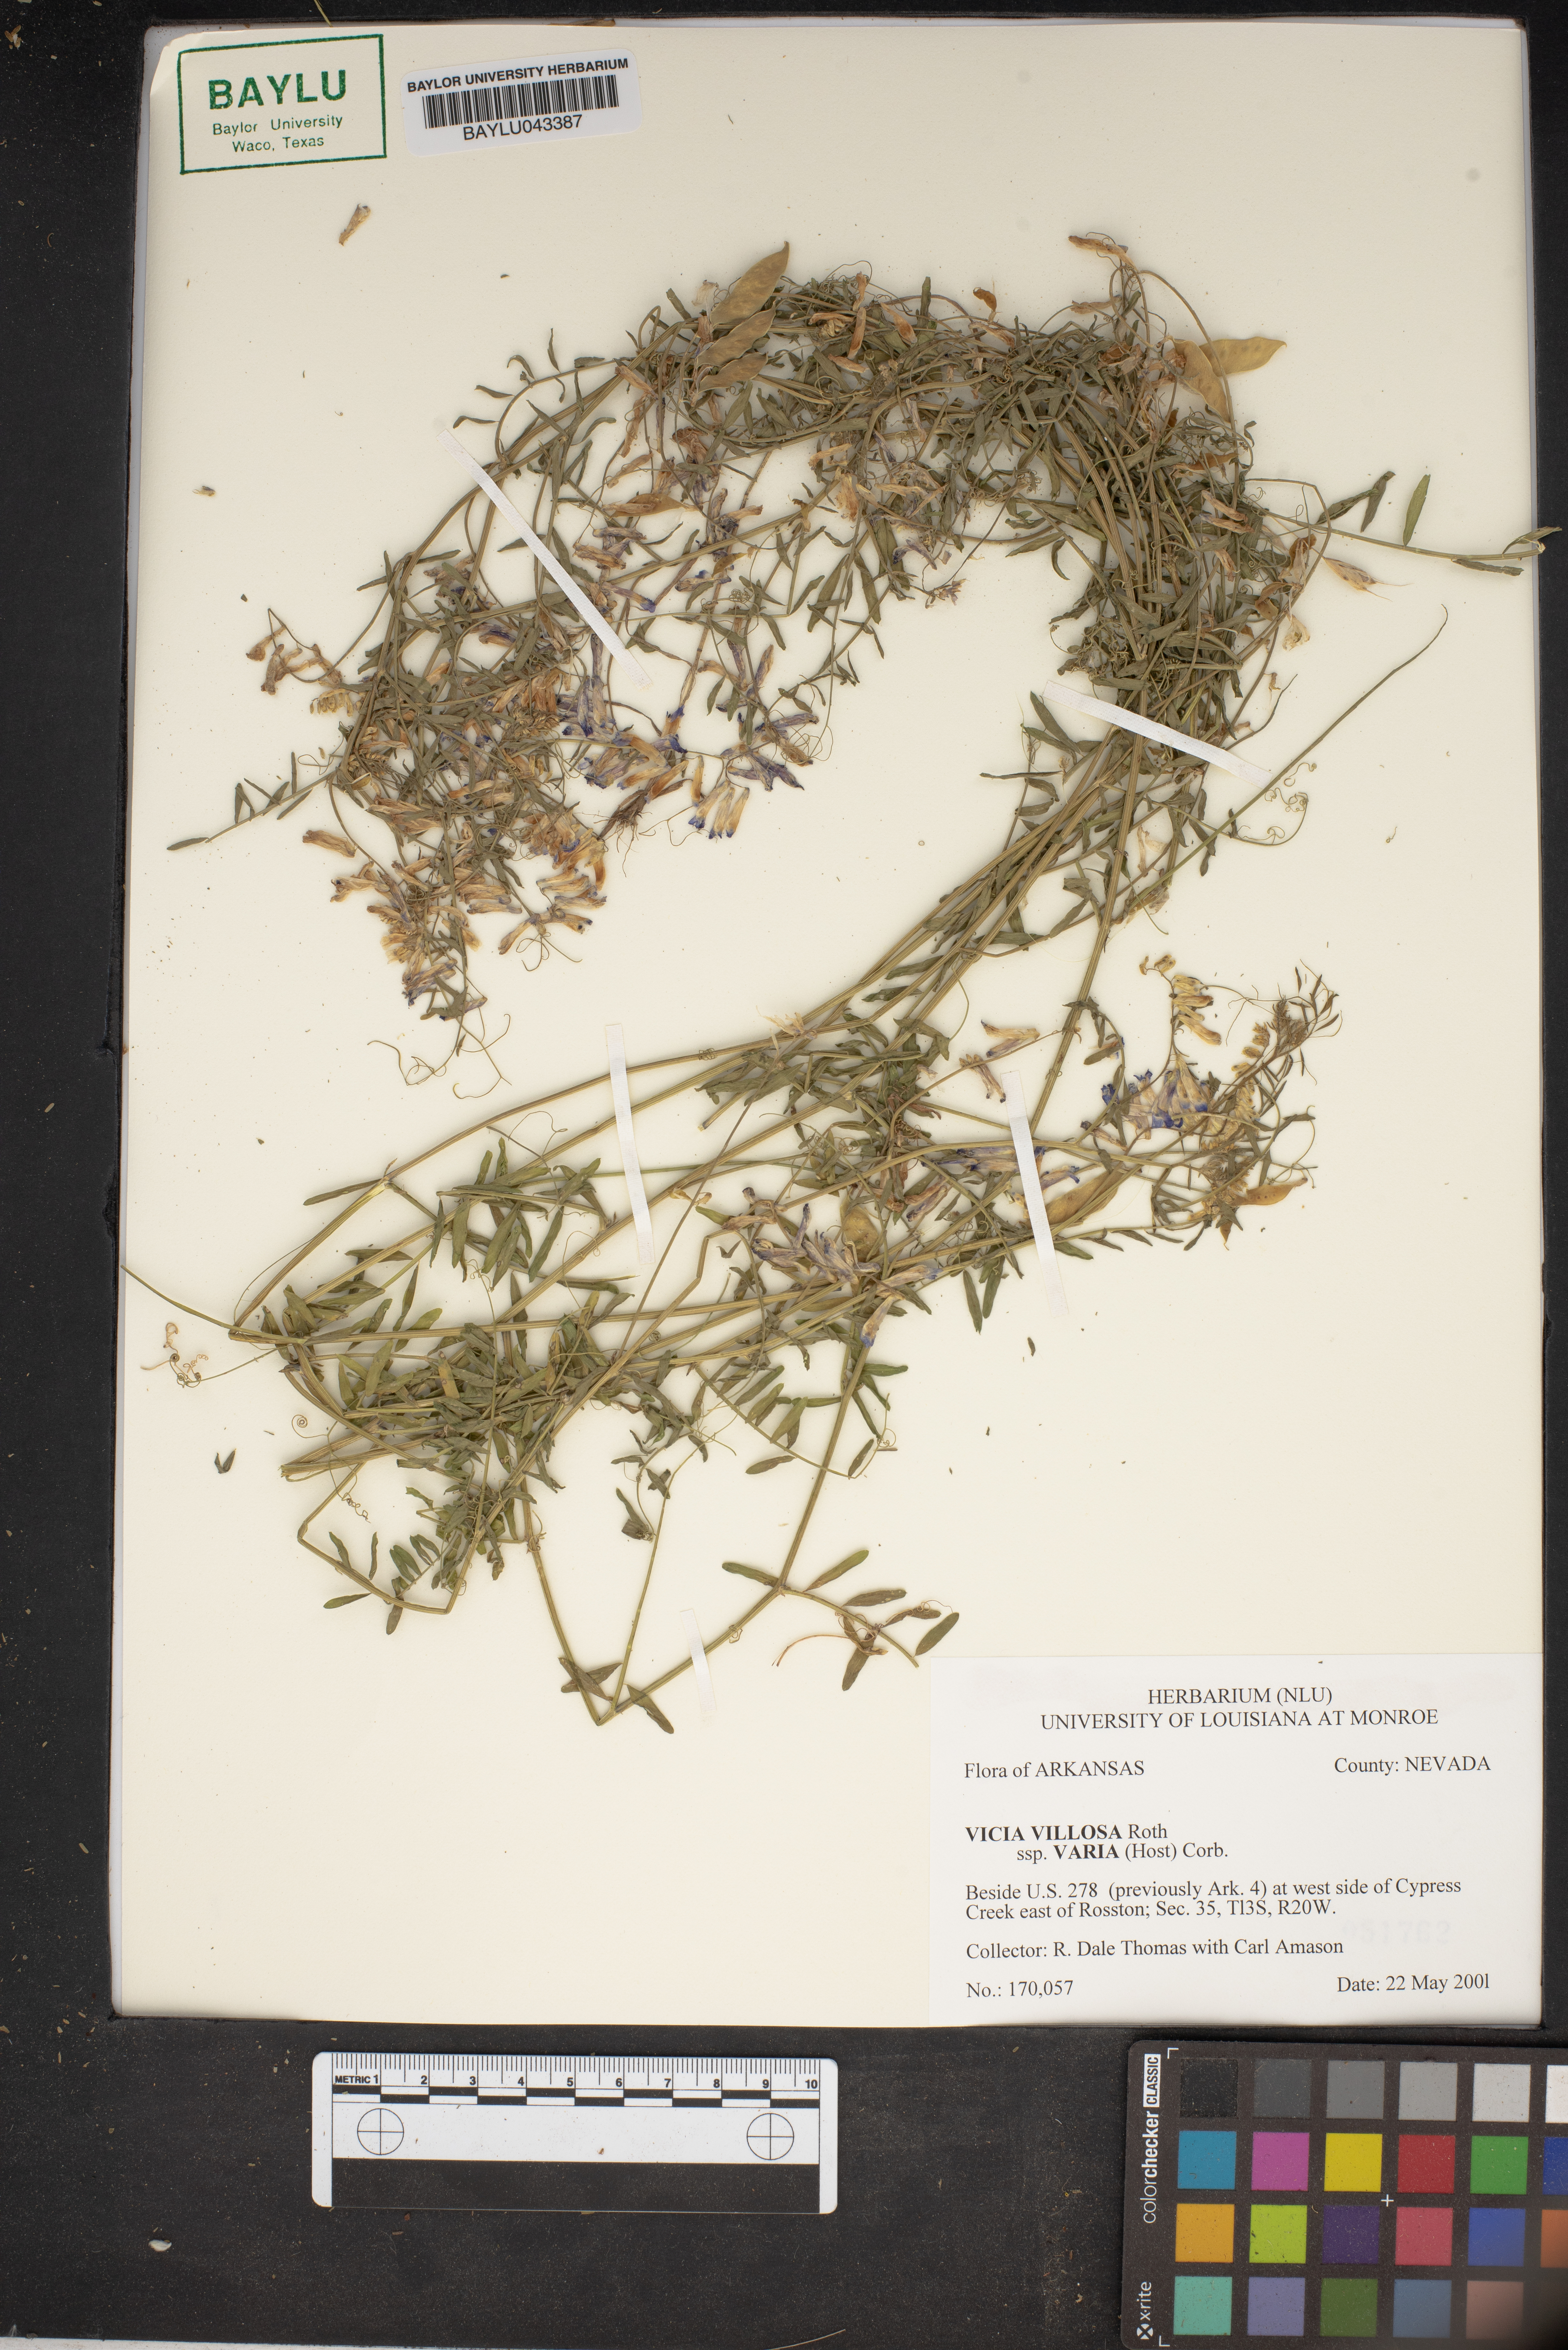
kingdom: Plantae
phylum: Tracheophyta
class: Magnoliopsida
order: Fabales
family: Fabaceae
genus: Vicia
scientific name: Vicia villosa
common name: Fodder vetch
